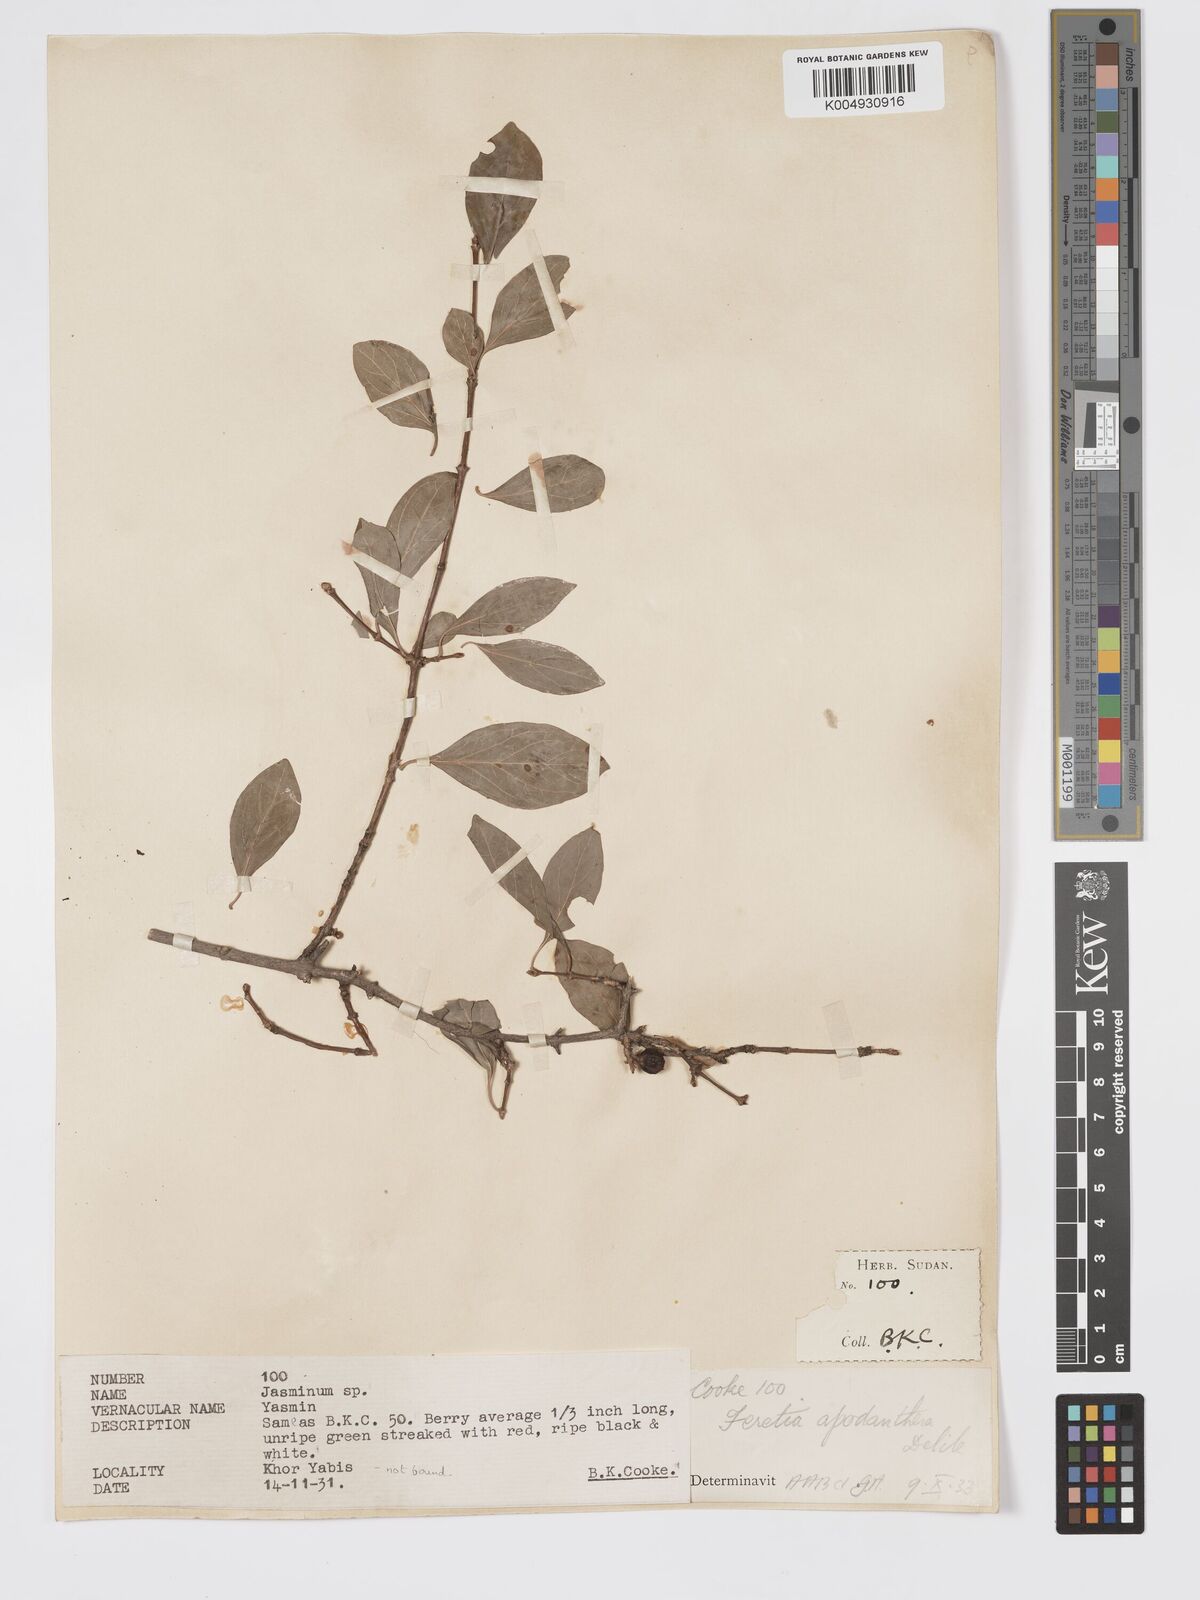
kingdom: Plantae
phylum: Tracheophyta
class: Magnoliopsida
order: Gentianales
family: Rubiaceae
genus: Feretia
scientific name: Feretia apodanthera
